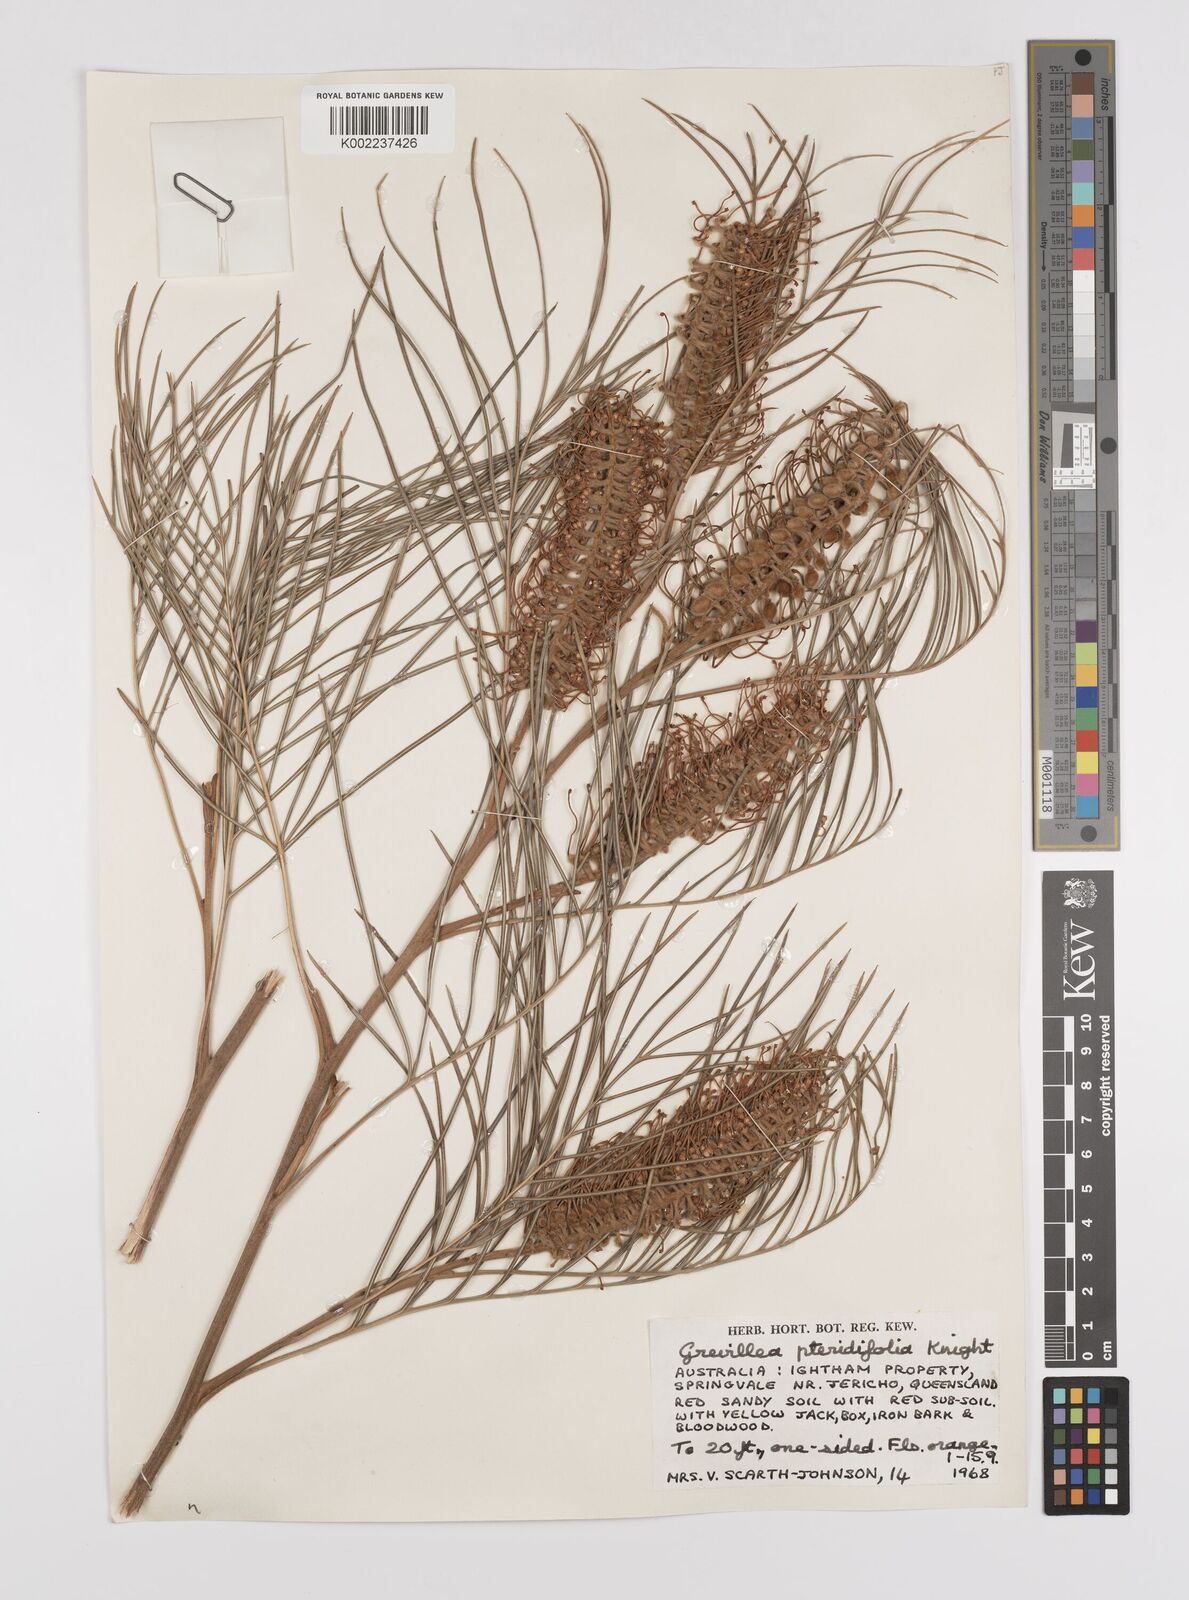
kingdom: Plantae
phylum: Tracheophyta
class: Magnoliopsida
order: Proteales
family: Proteaceae
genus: Grevillea
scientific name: Grevillea pteridifolia
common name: Golden grevillea
